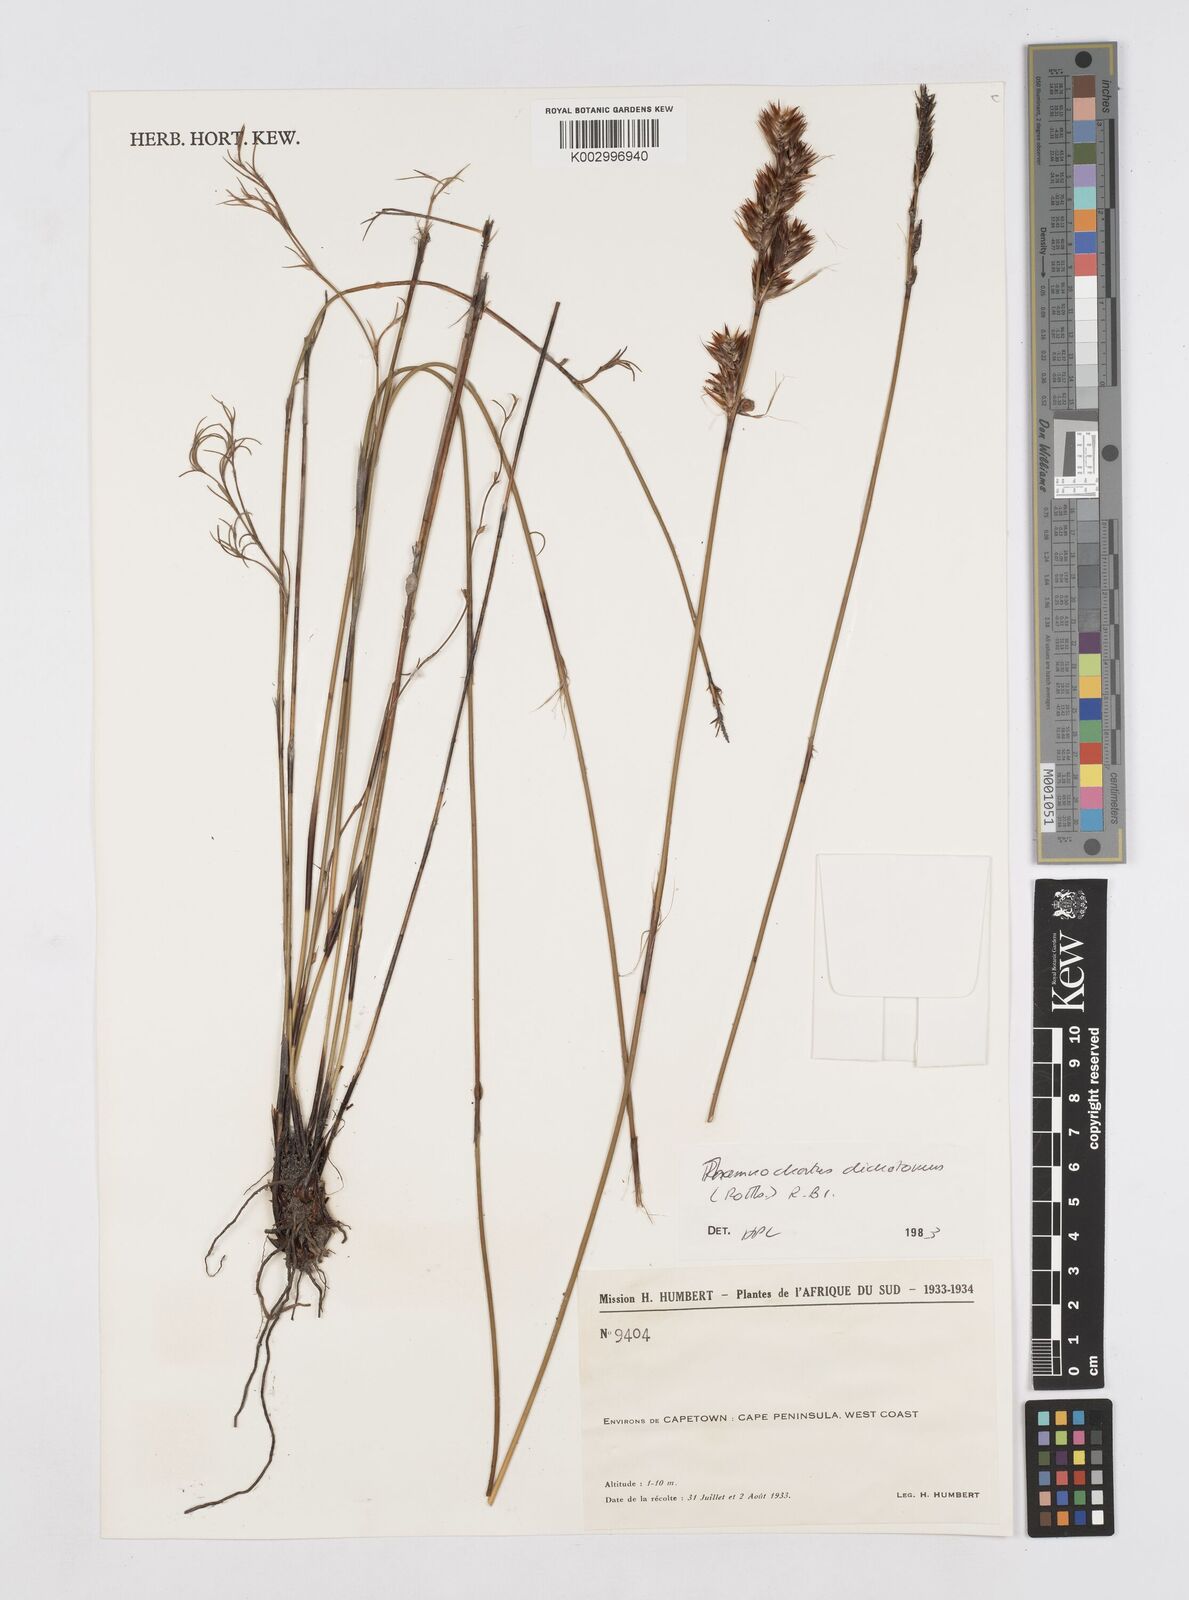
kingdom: Plantae
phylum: Tracheophyta
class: Liliopsida
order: Poales
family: Restionaceae
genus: Thamnochortus
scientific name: Thamnochortus lucens
